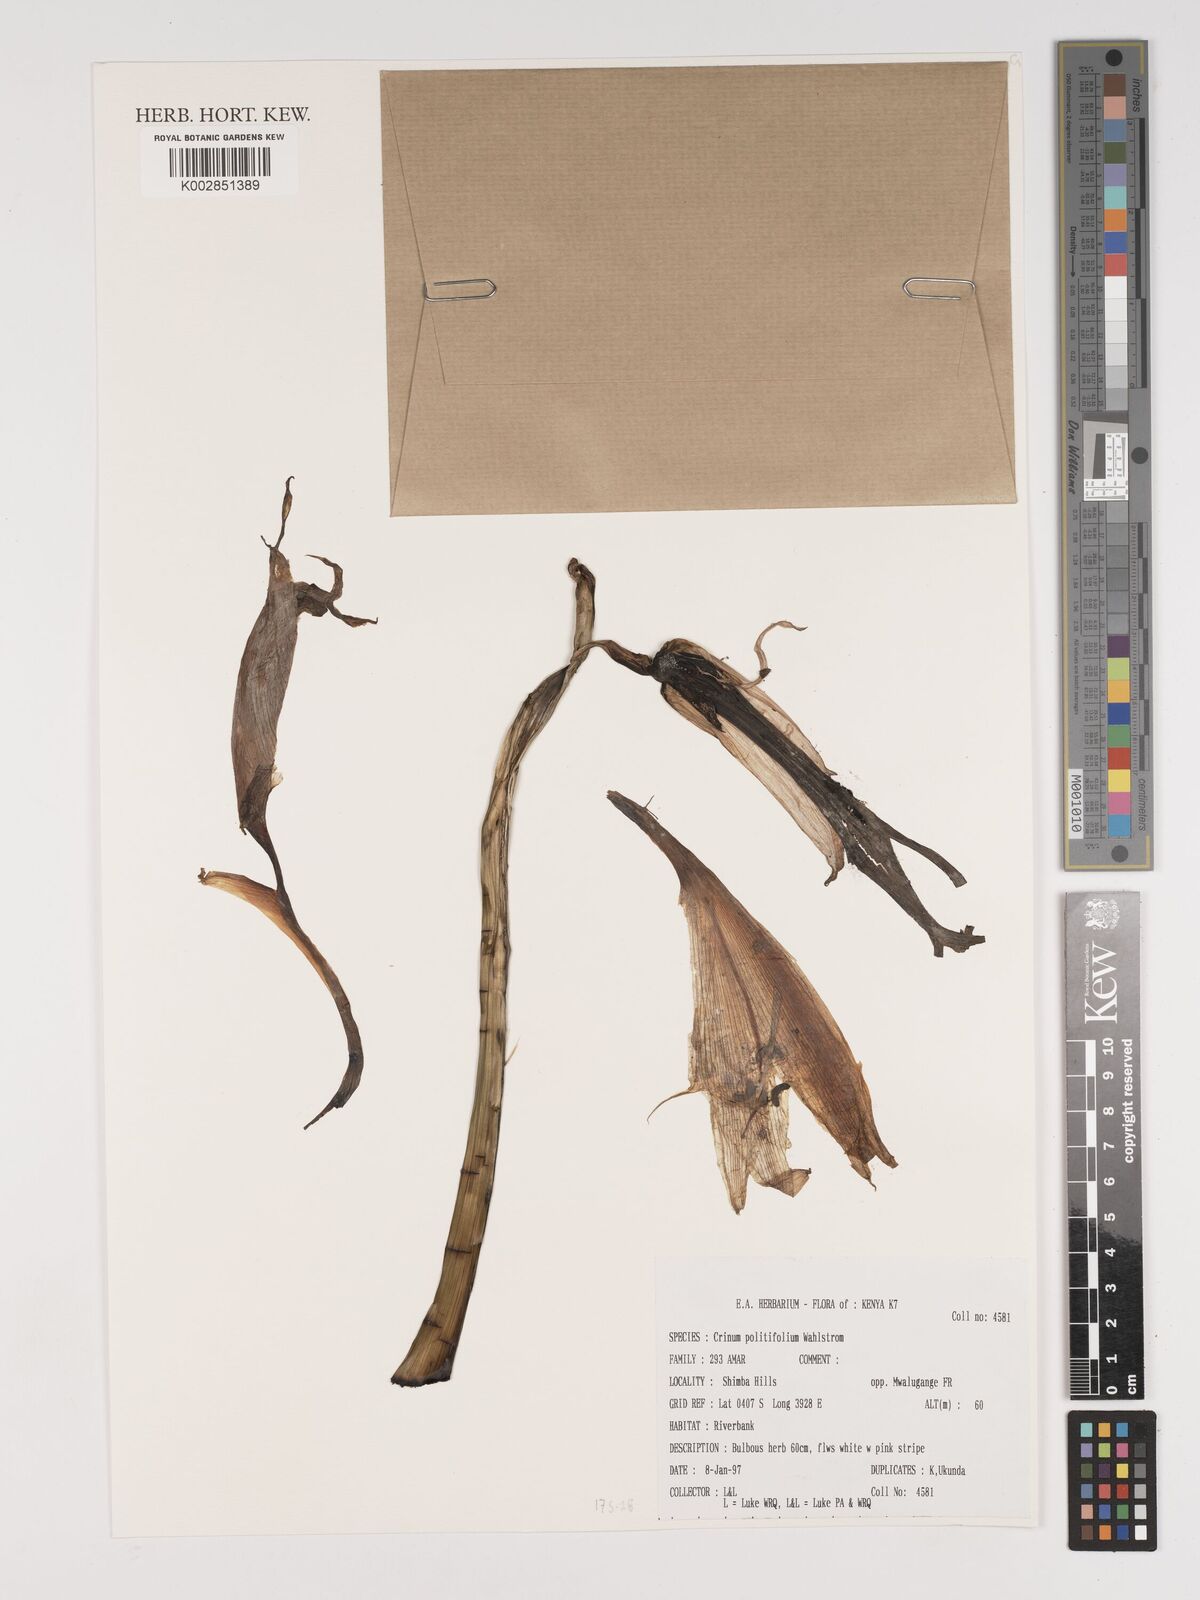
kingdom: Plantae
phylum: Tracheophyta
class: Liliopsida
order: Asparagales
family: Amaryllidaceae
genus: Crinum
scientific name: Crinum politifolium
